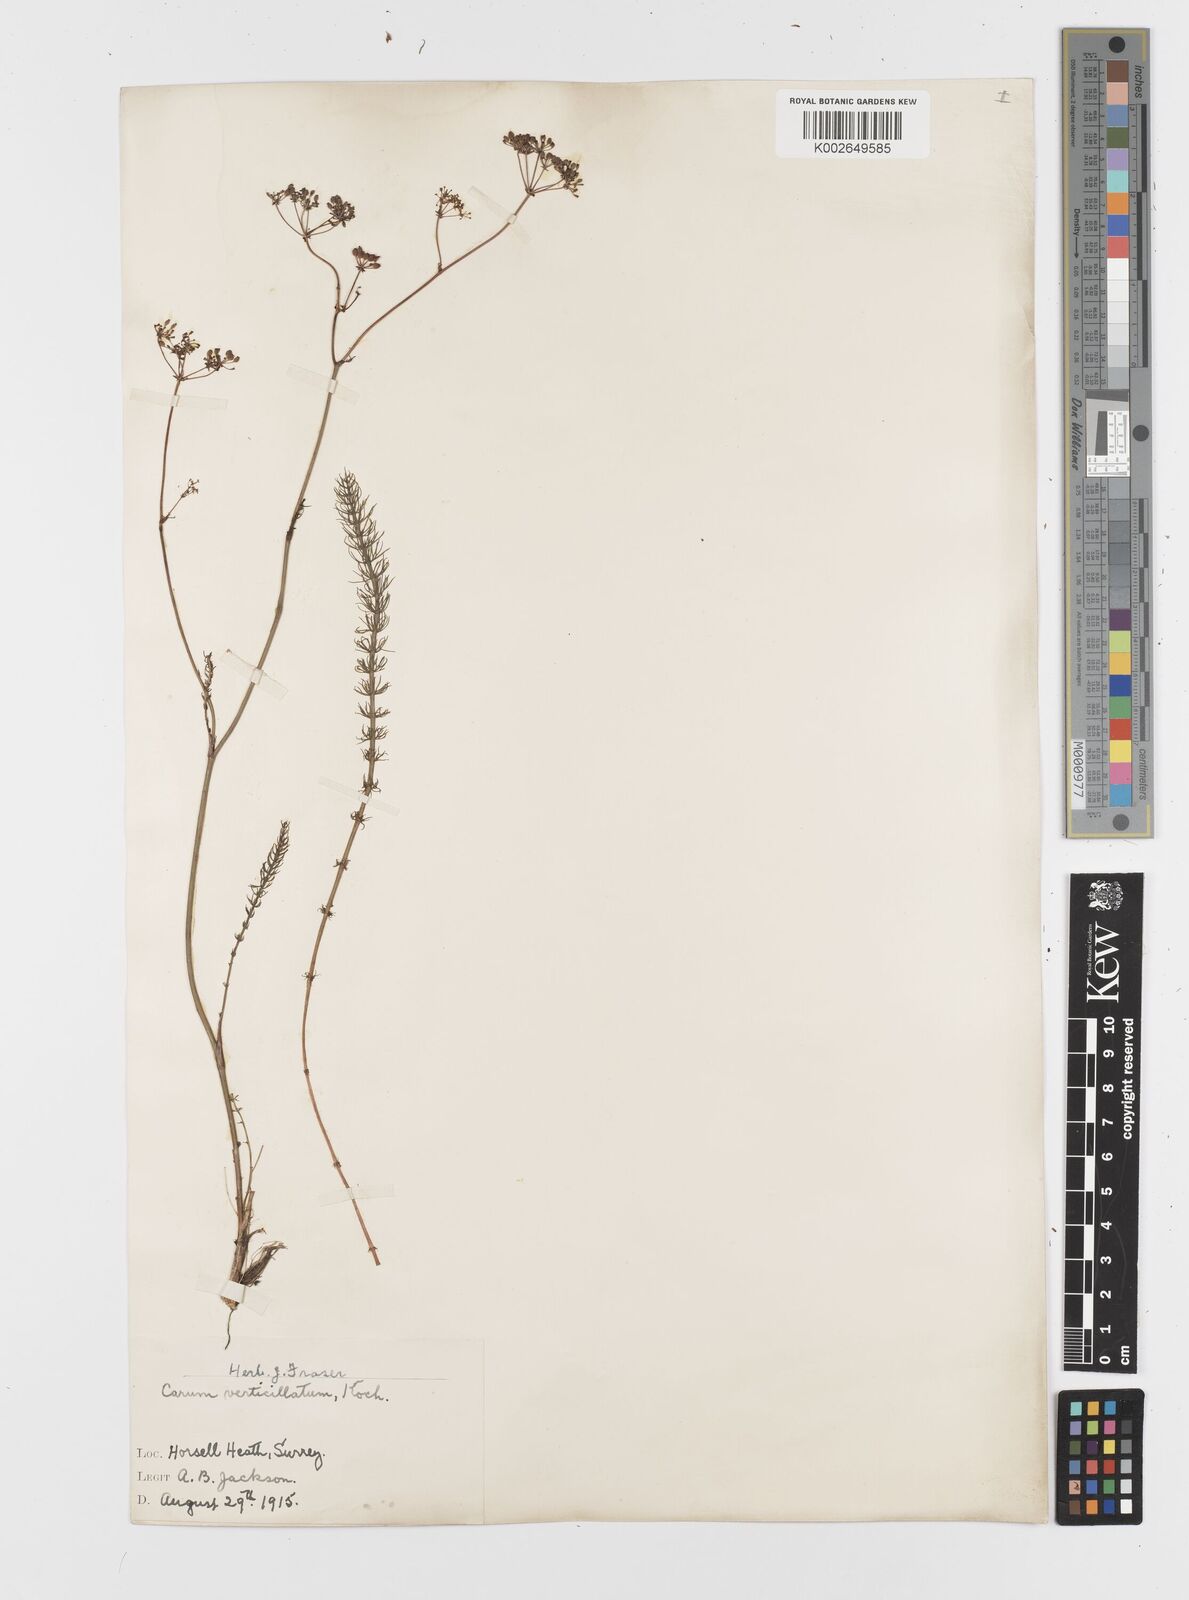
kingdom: Plantae
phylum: Tracheophyta
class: Magnoliopsida
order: Apiales
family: Apiaceae
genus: Trocdaris
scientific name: Trocdaris verticillatum
